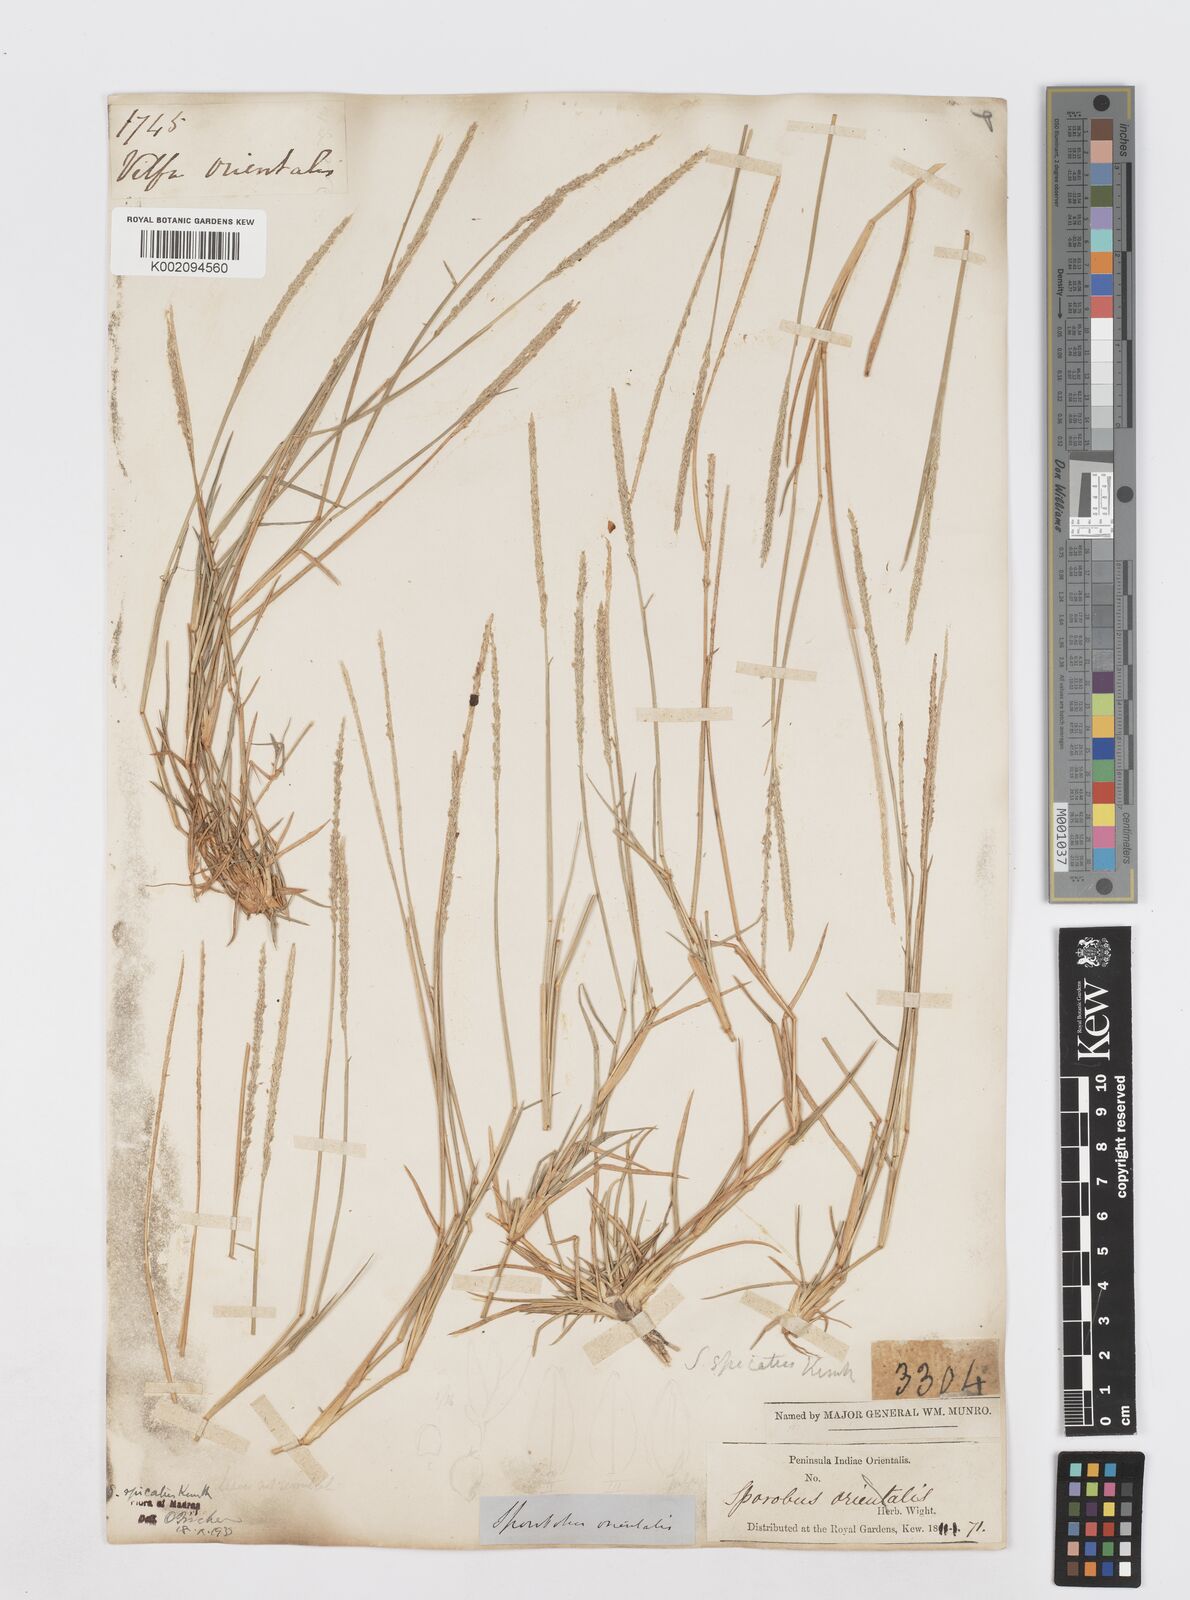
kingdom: Plantae
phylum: Tracheophyta
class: Liliopsida
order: Poales
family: Poaceae
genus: Sporobolus
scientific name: Sporobolus spicatus
